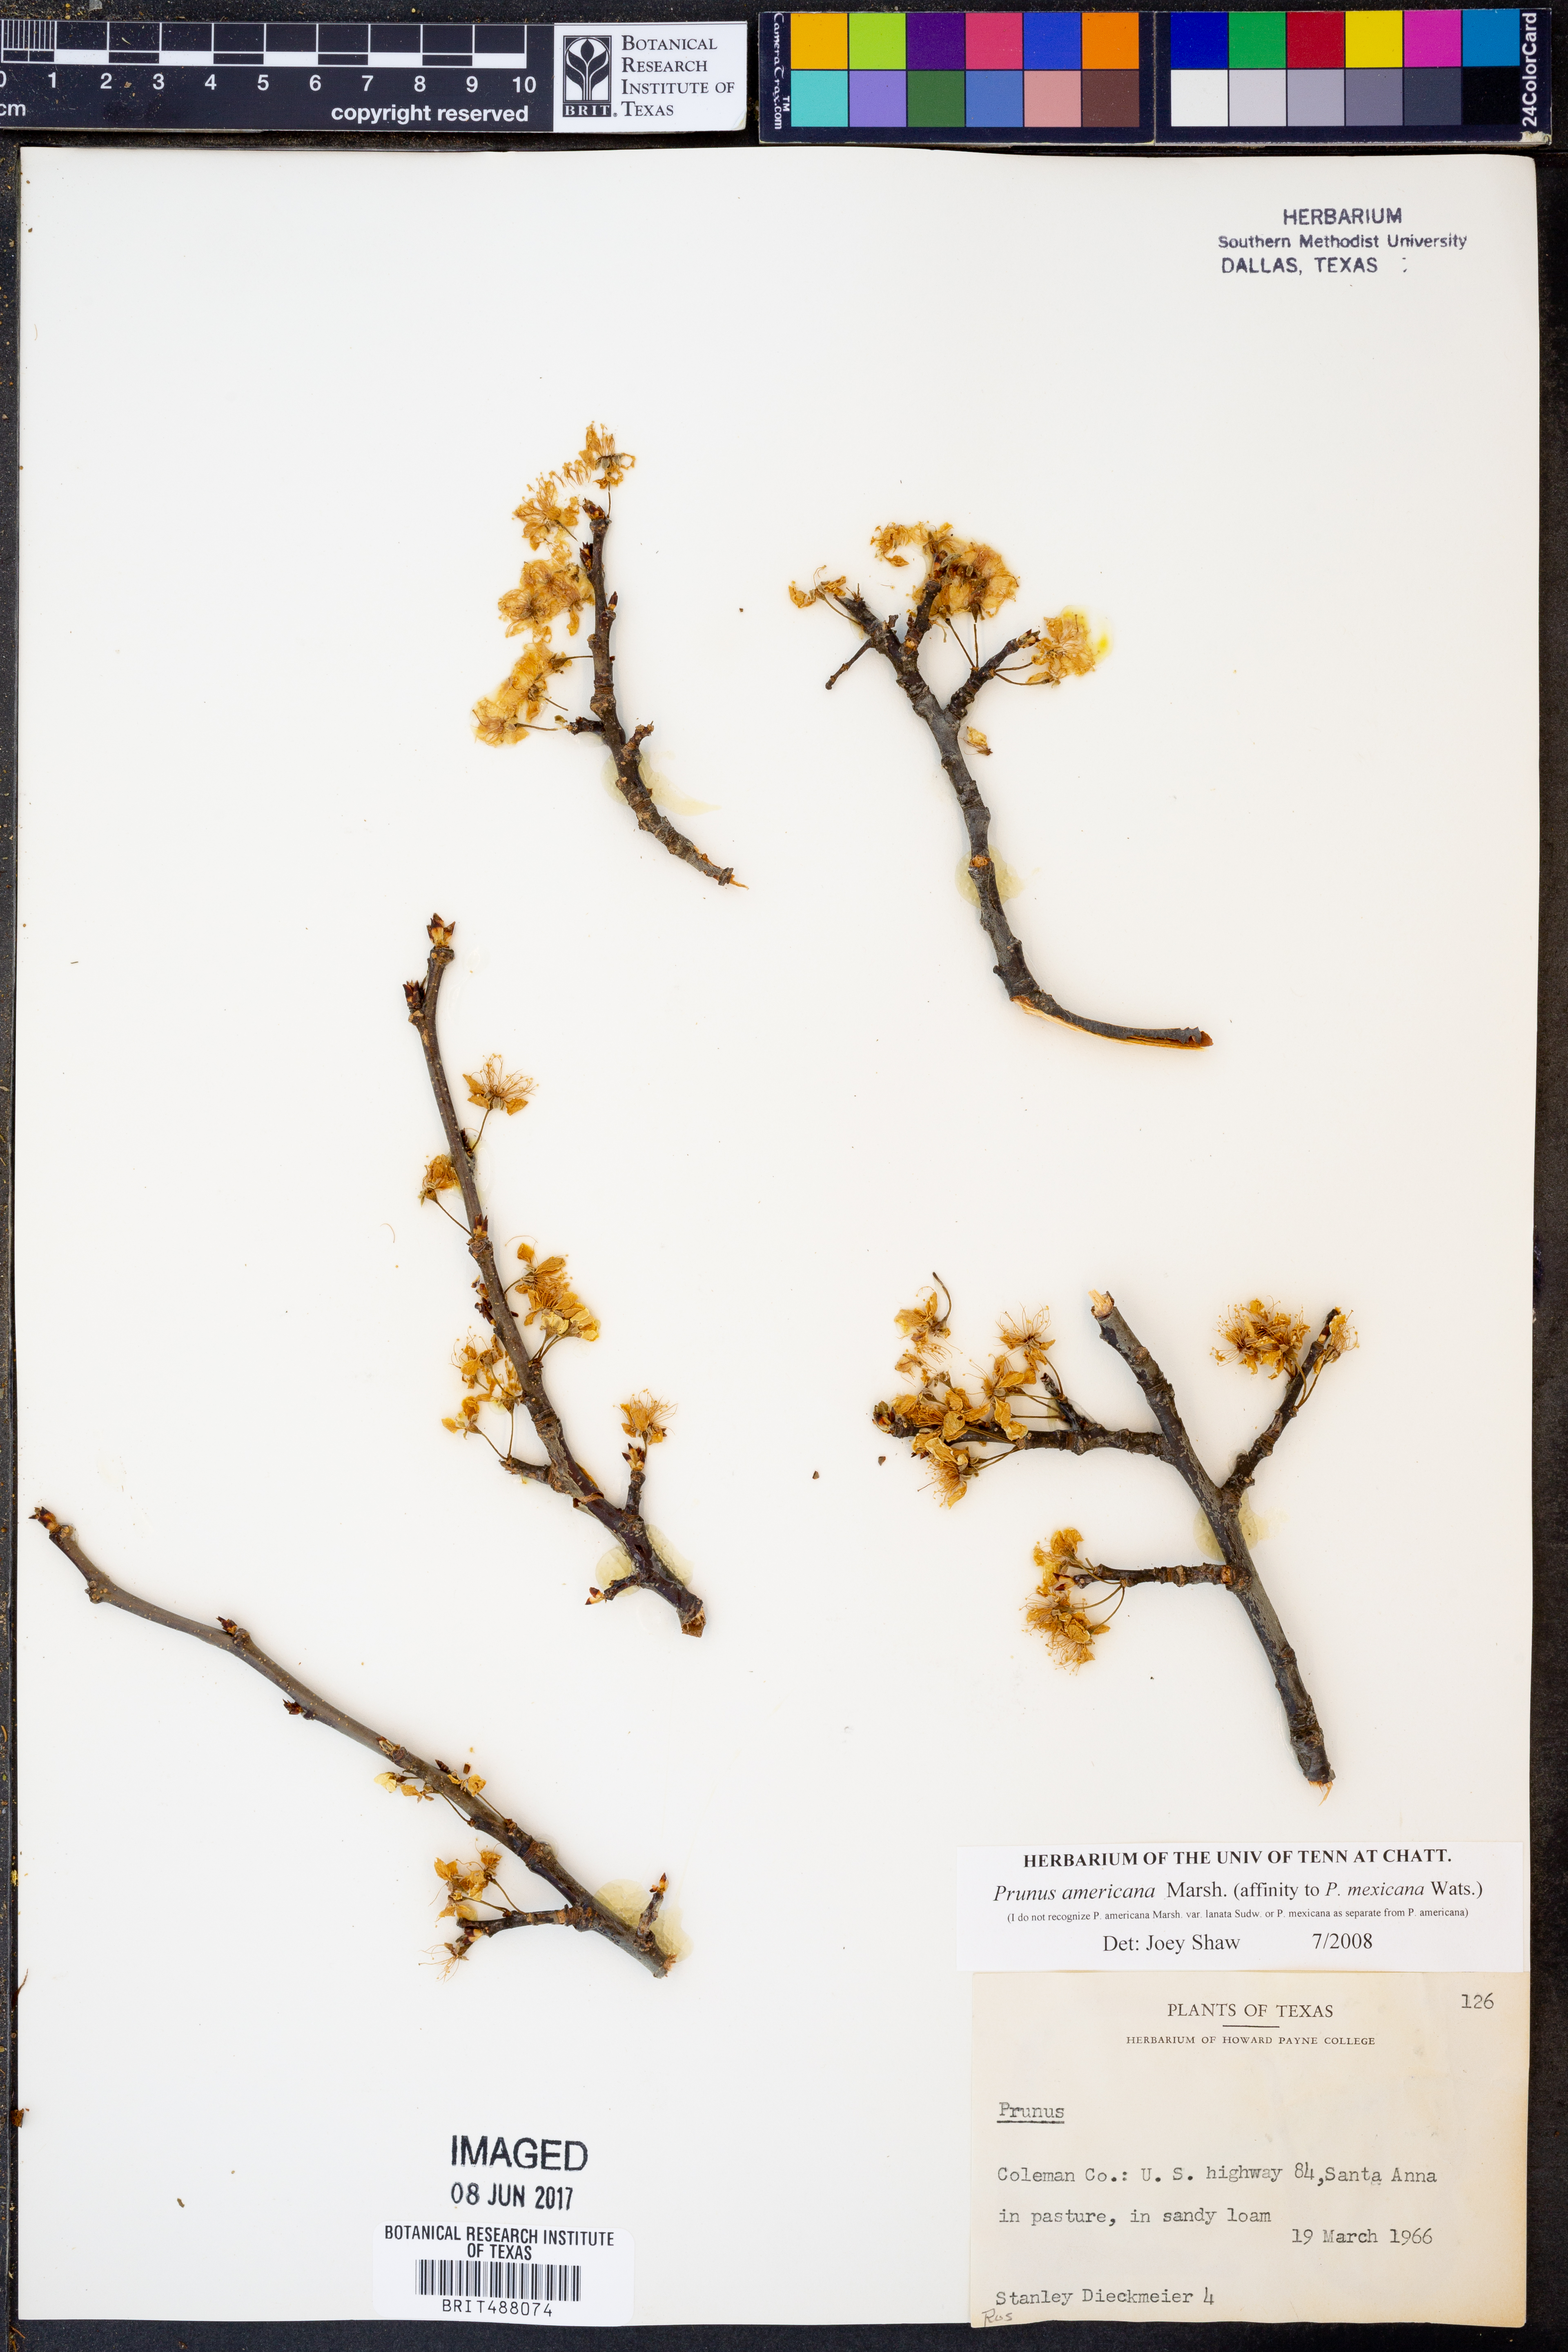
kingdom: Plantae
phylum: Tracheophyta
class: Magnoliopsida
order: Rosales
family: Rosaceae
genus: Prunus
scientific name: Prunus americana
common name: American plum
